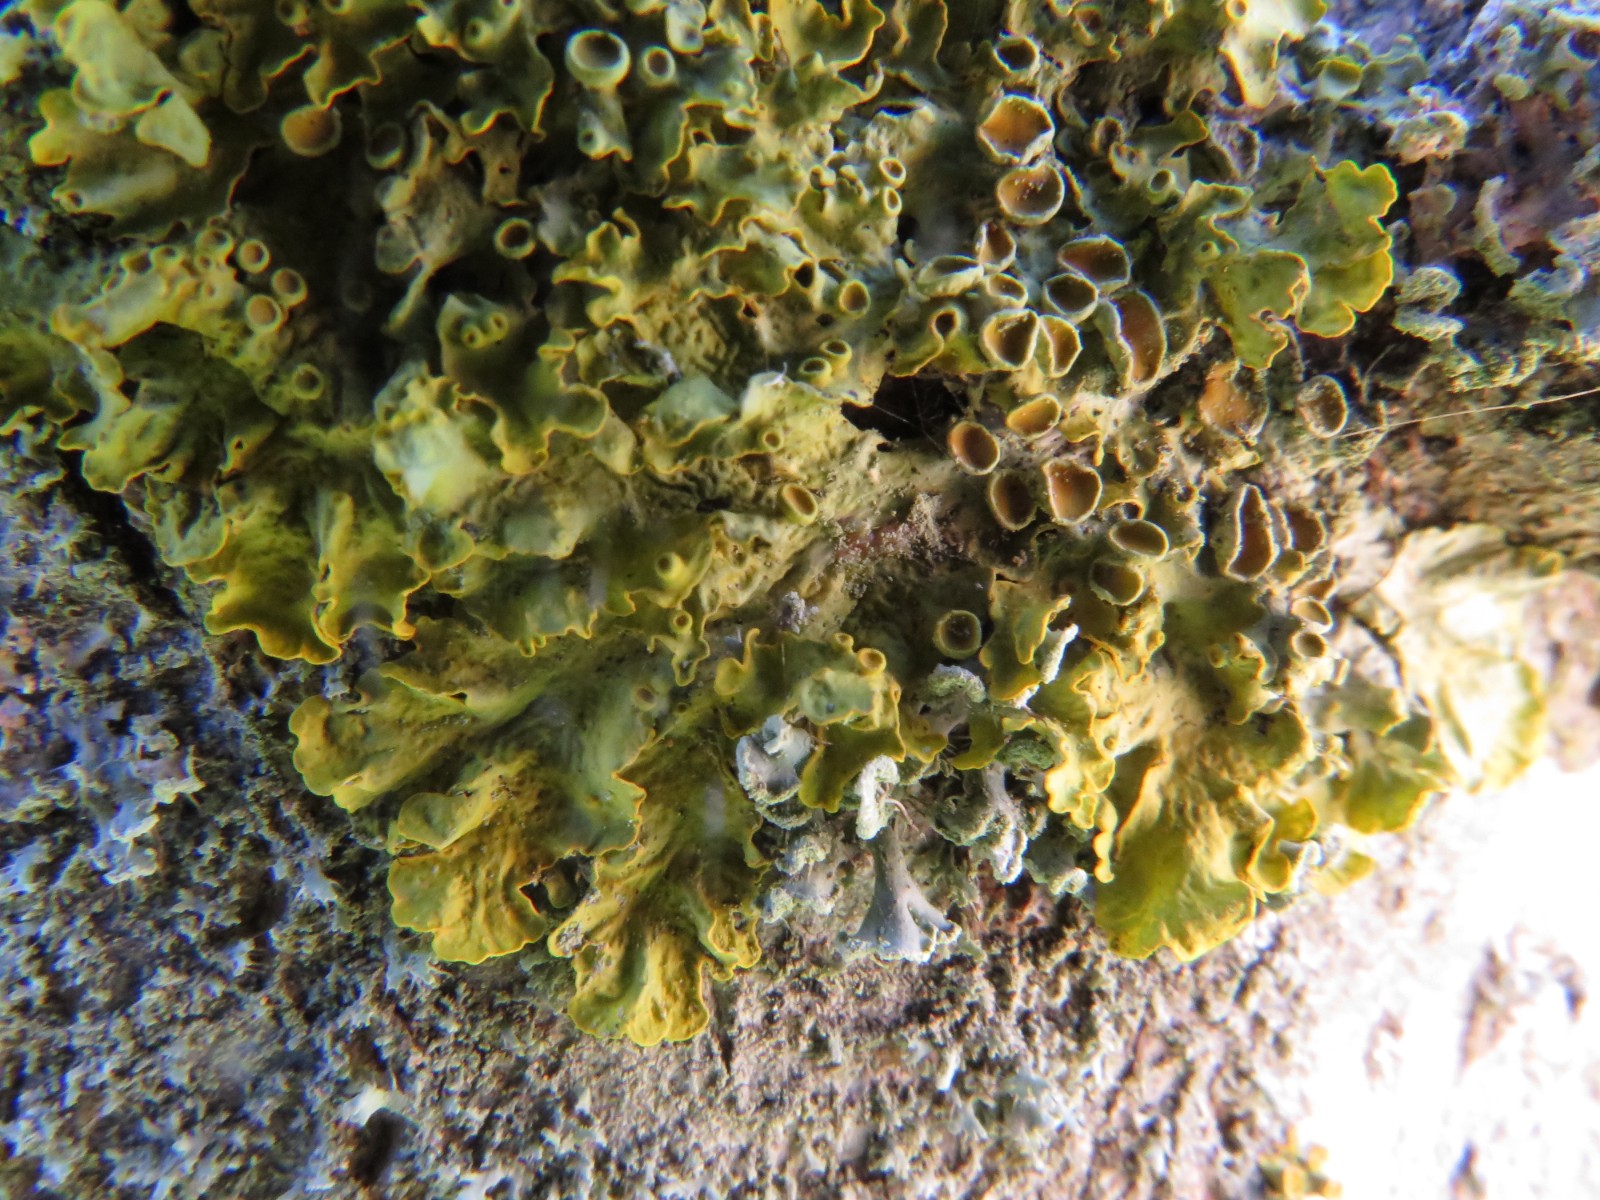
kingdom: Fungi
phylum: Ascomycota
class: Lecanoromycetes
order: Teloschistales
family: Teloschistaceae
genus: Xanthoria
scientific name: Xanthoria parietina
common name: almindelig væggelav
